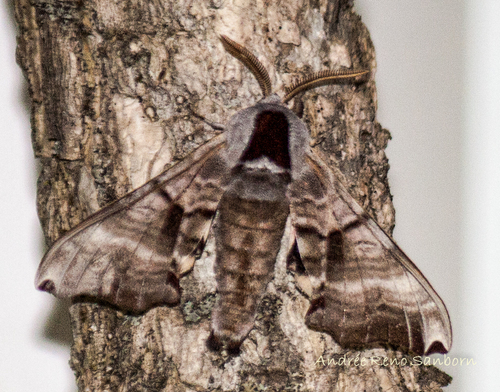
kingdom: Animalia
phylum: Arthropoda
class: Insecta
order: Lepidoptera
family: Sphingidae
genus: Smerinthus
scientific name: Smerinthus jamaicensis
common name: Twin spotted sphinx
